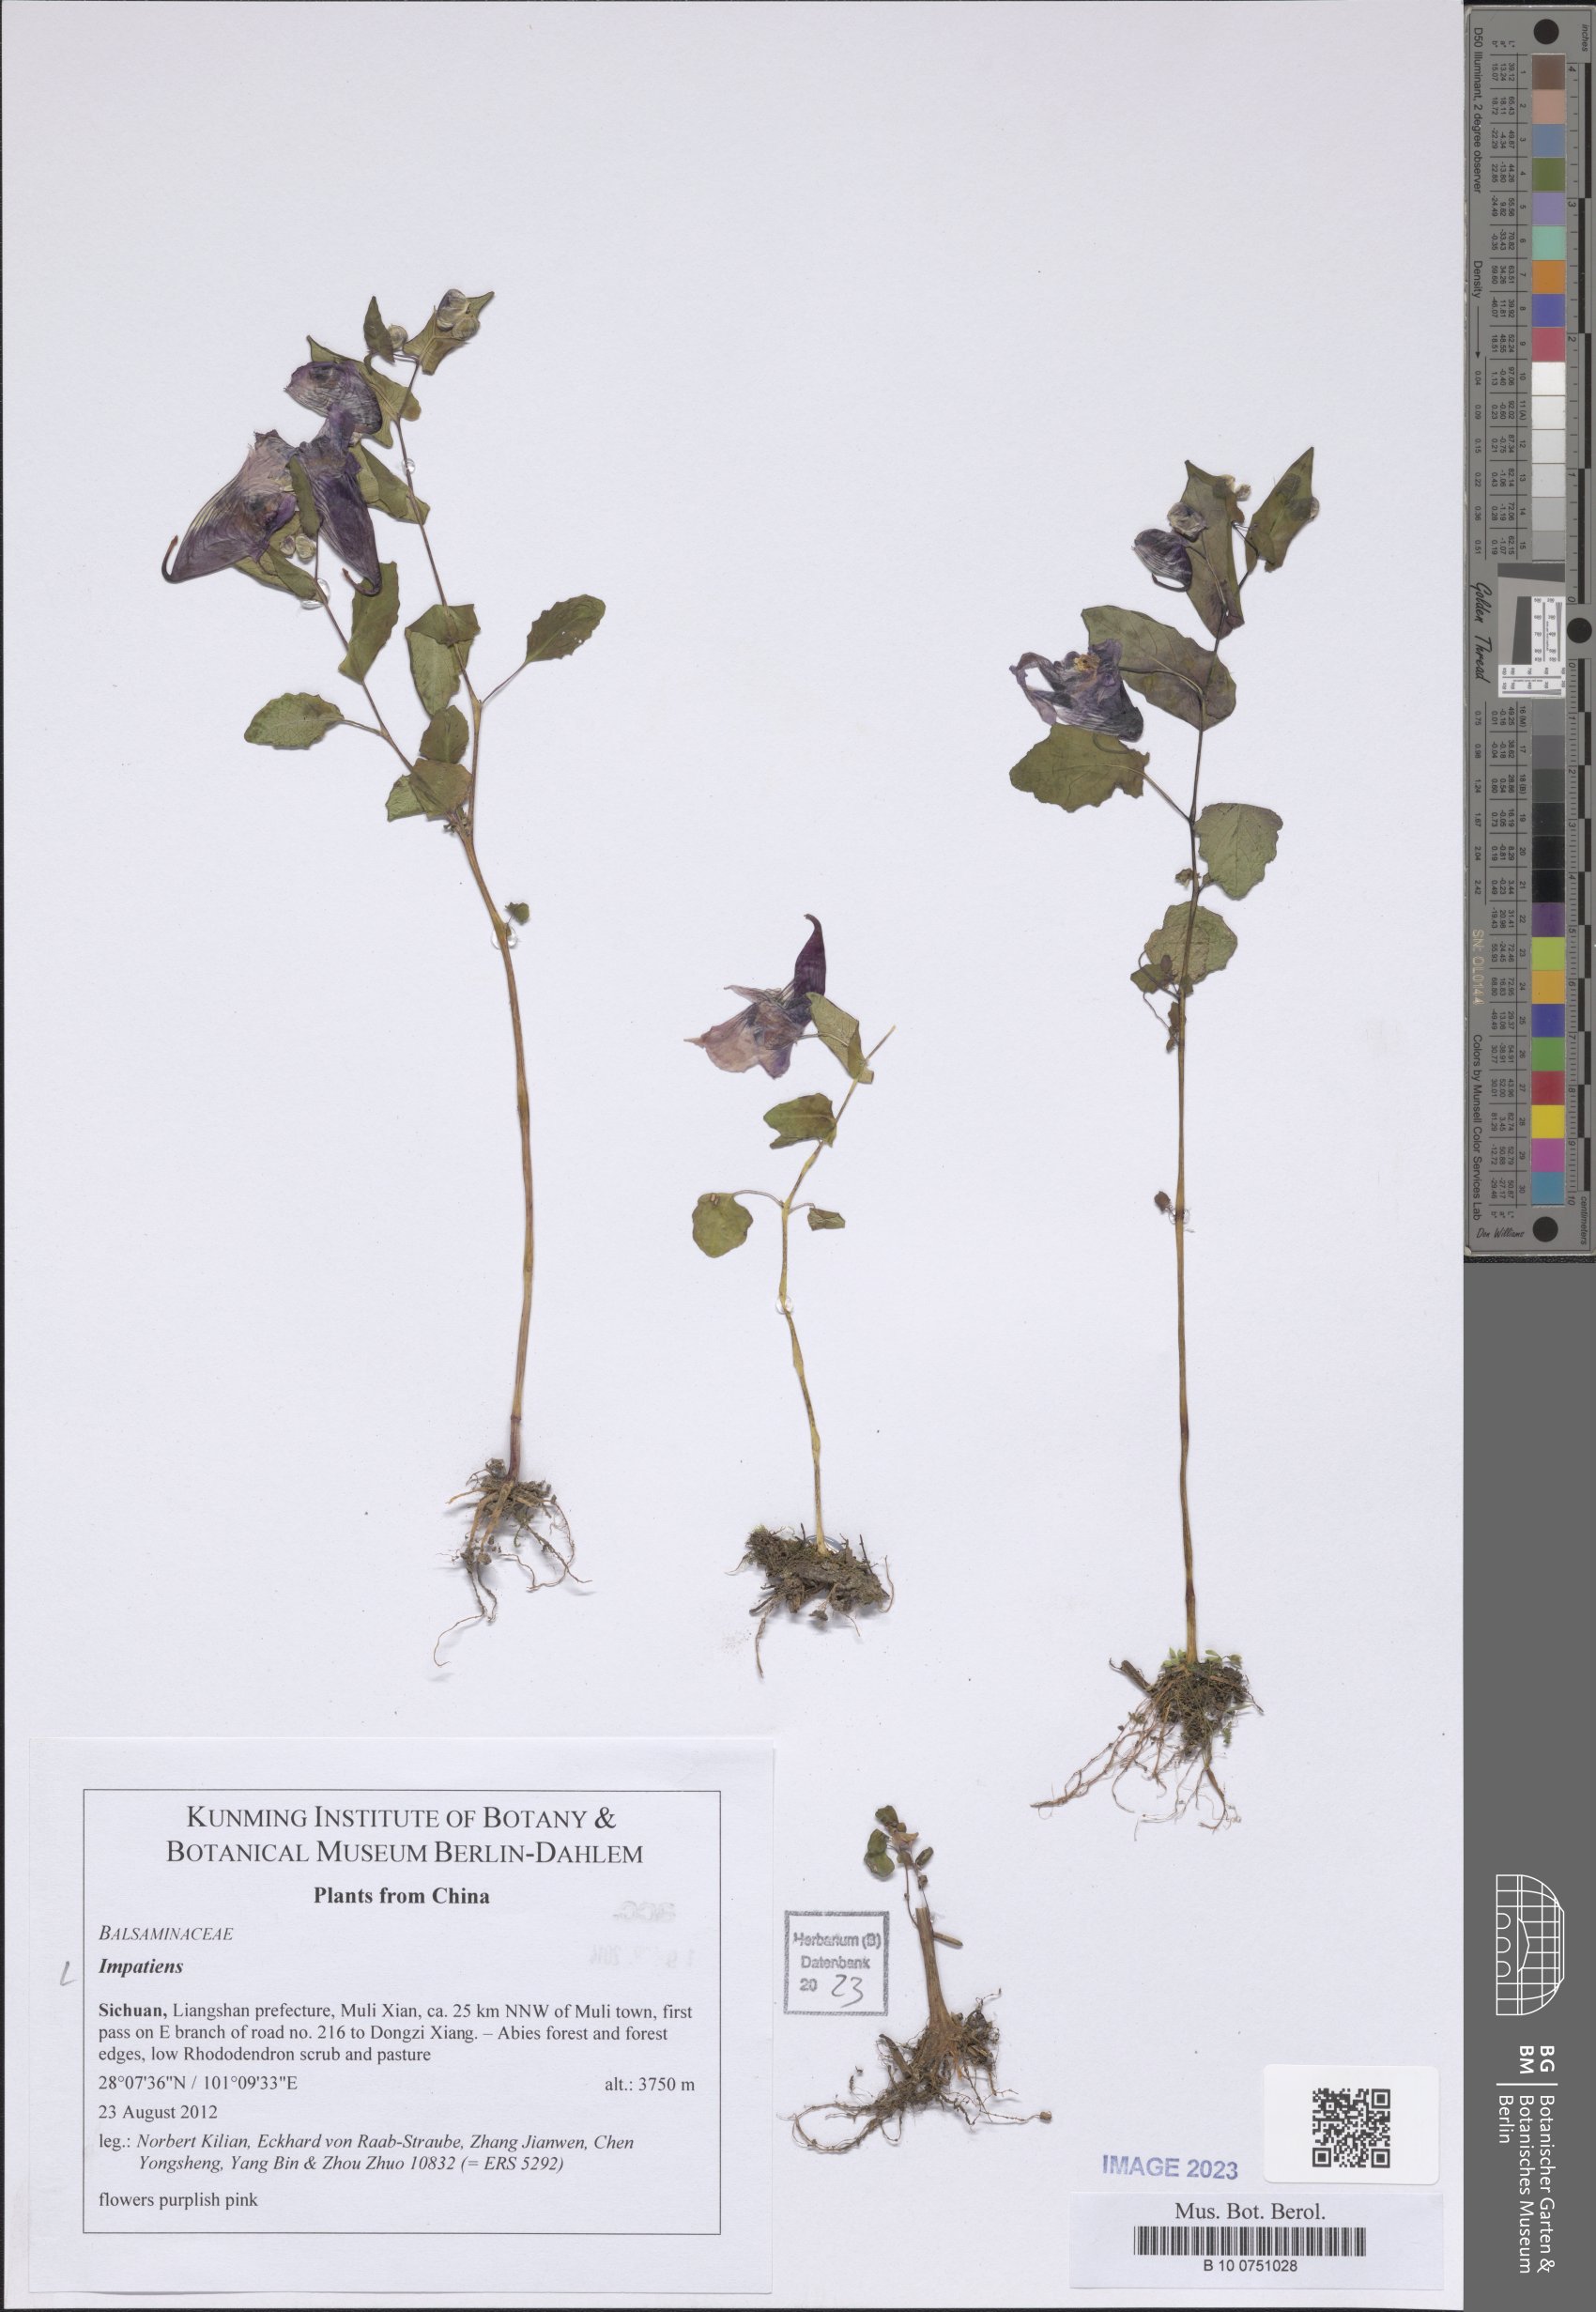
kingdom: Plantae
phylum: Tracheophyta
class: Magnoliopsida
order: Ericales
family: Balsaminaceae
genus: Impatiens
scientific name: Impatiens
